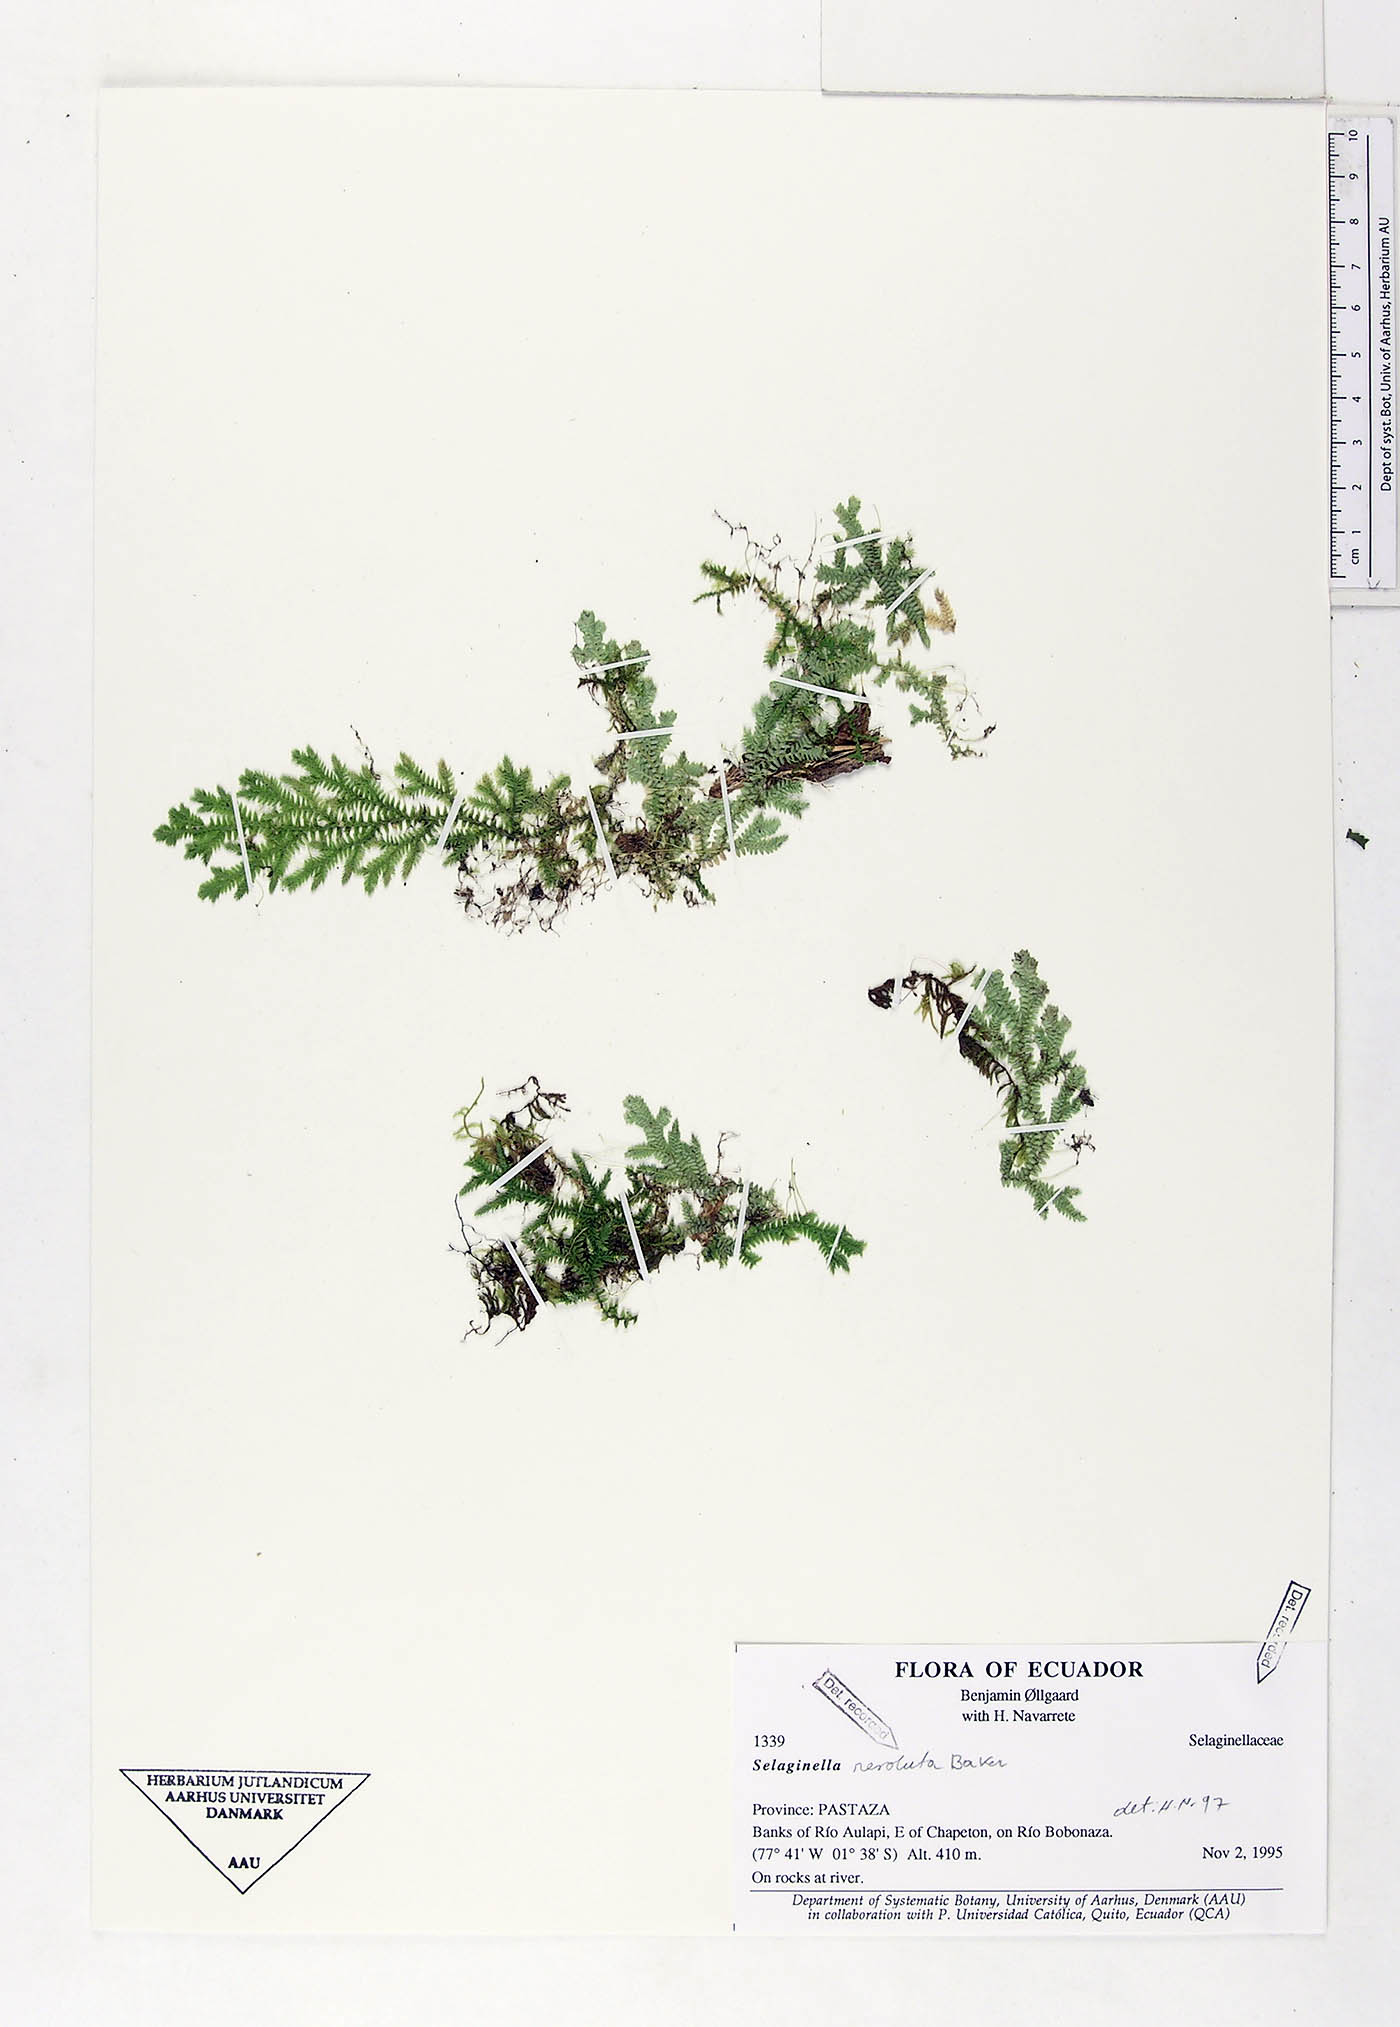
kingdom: Plantae
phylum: Tracheophyta
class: Lycopodiopsida
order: Selaginellales
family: Selaginellaceae
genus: Selaginella
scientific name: Selaginella revoluta
